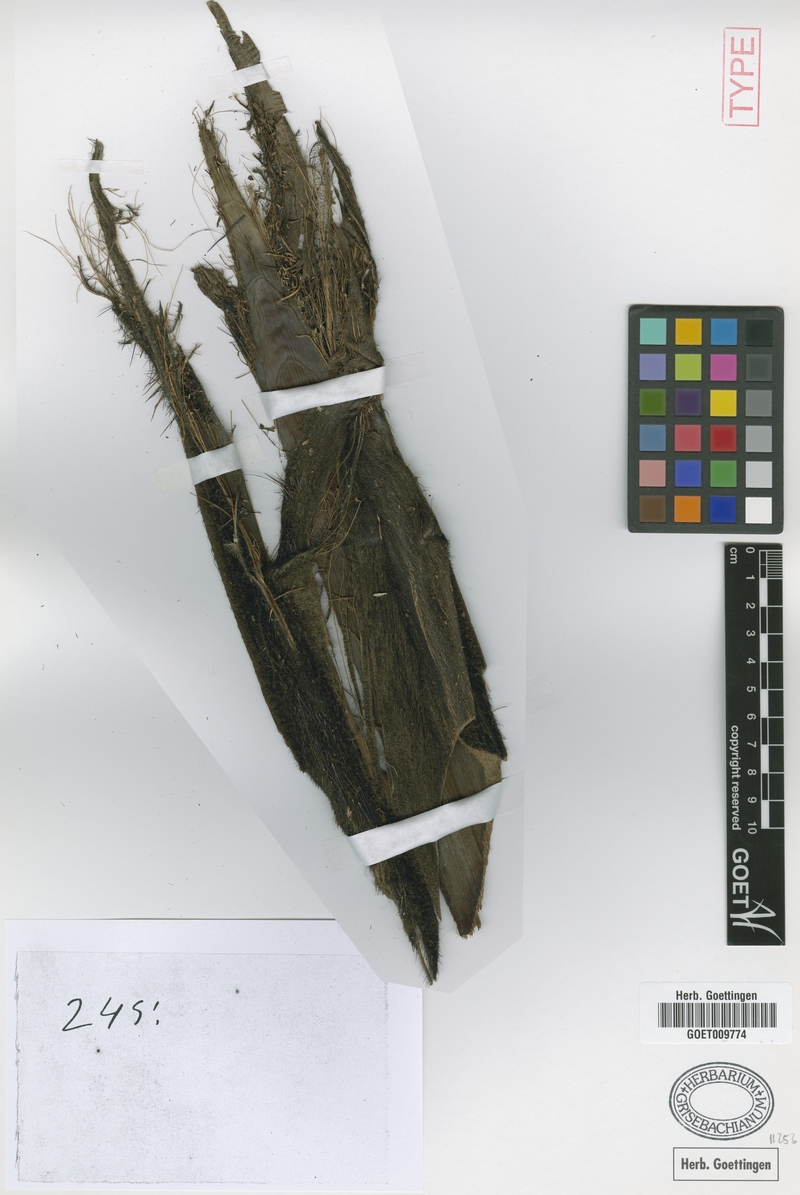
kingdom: Plantae
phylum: Tracheophyta
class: Liliopsida
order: Arecales
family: Arecaceae
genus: Astrocaryum
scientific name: Astrocaryum aculeatum
